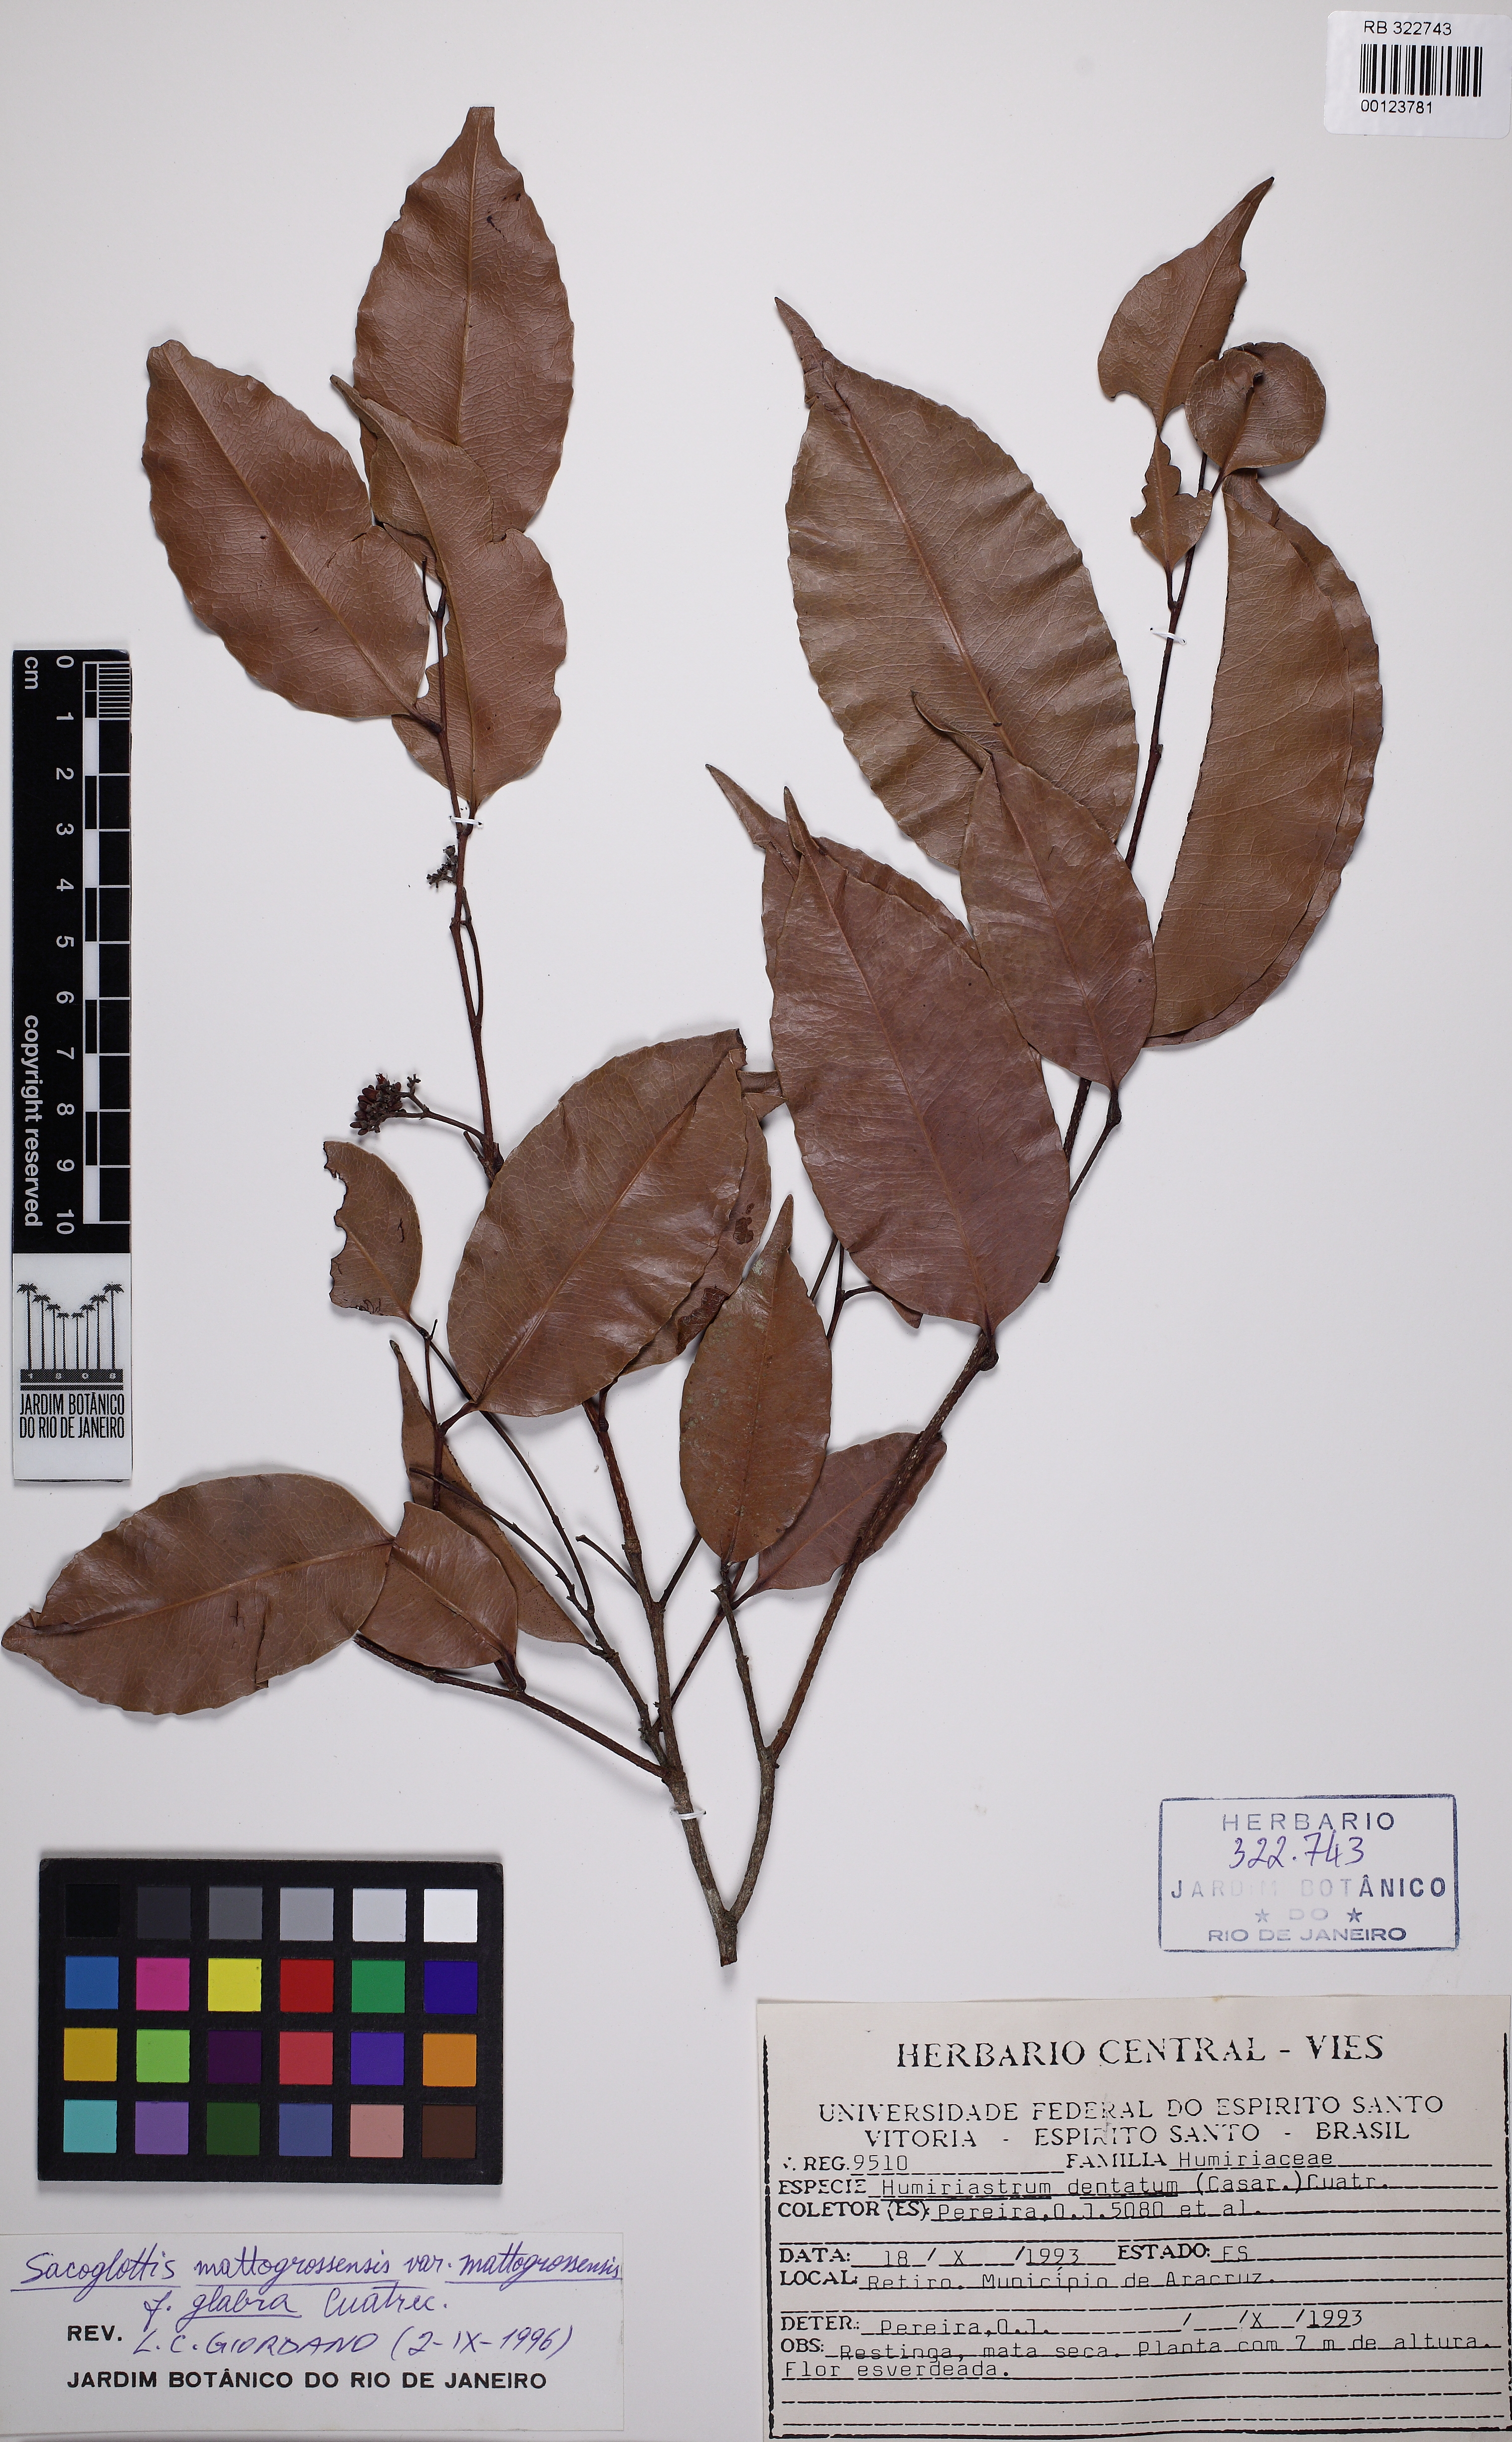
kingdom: Plantae
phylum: Tracheophyta
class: Magnoliopsida
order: Malpighiales
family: Humiriaceae
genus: Sacoglottis
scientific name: Sacoglottis mattogrossensis
